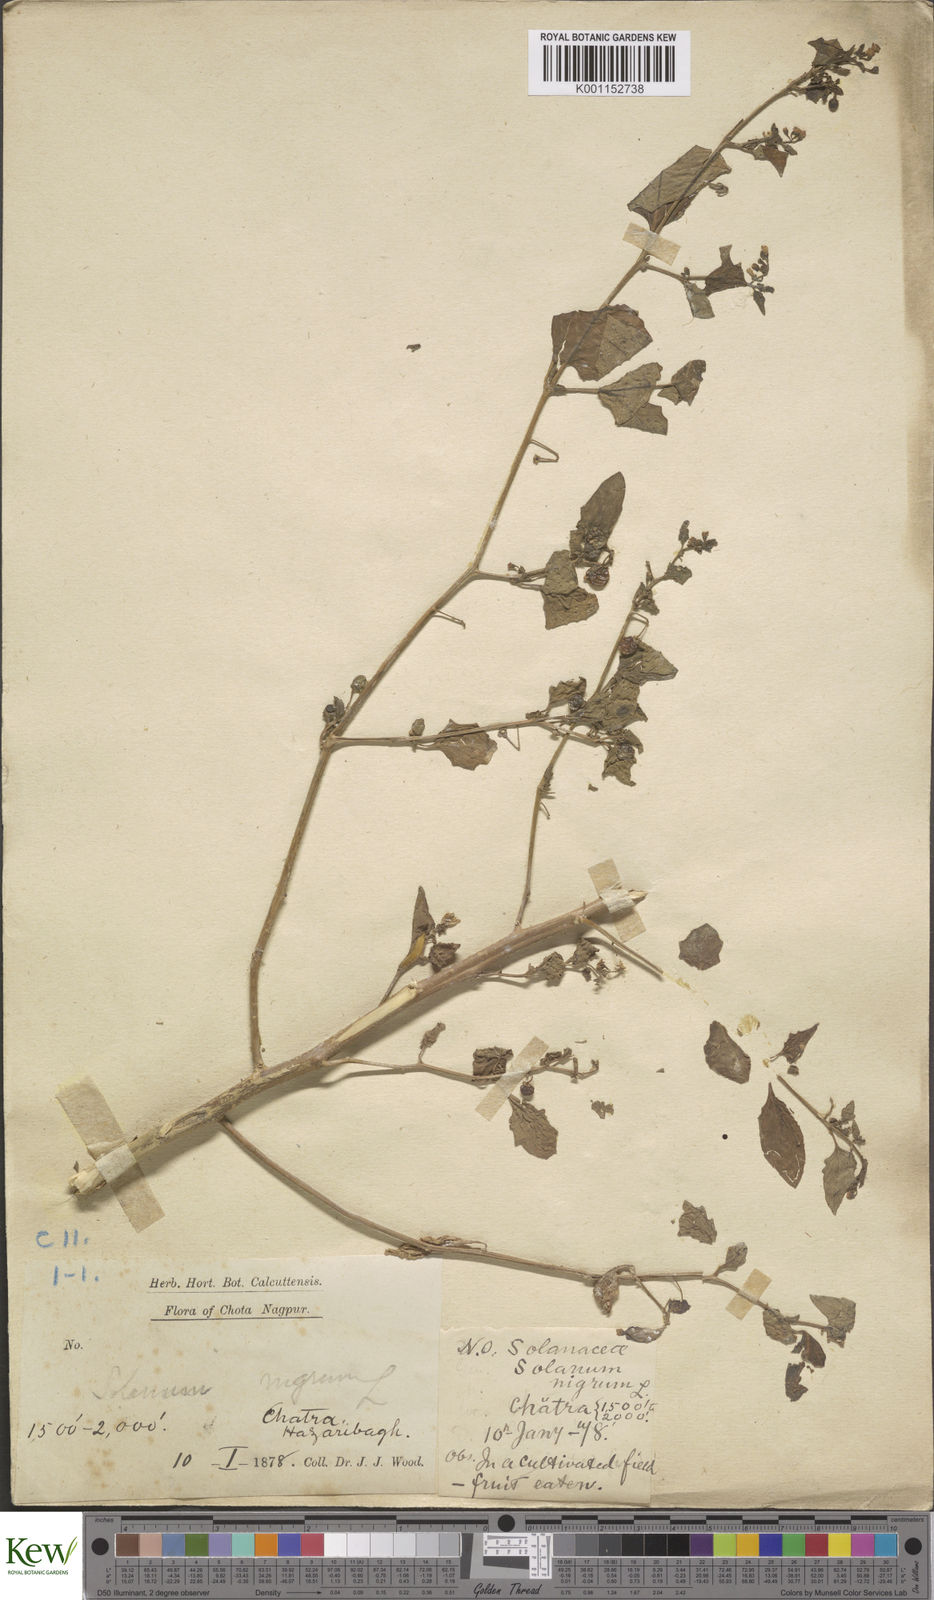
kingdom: Plantae
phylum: Tracheophyta
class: Magnoliopsida
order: Solanales
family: Solanaceae
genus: Solanum
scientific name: Solanum nigrum
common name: Black nightshade
